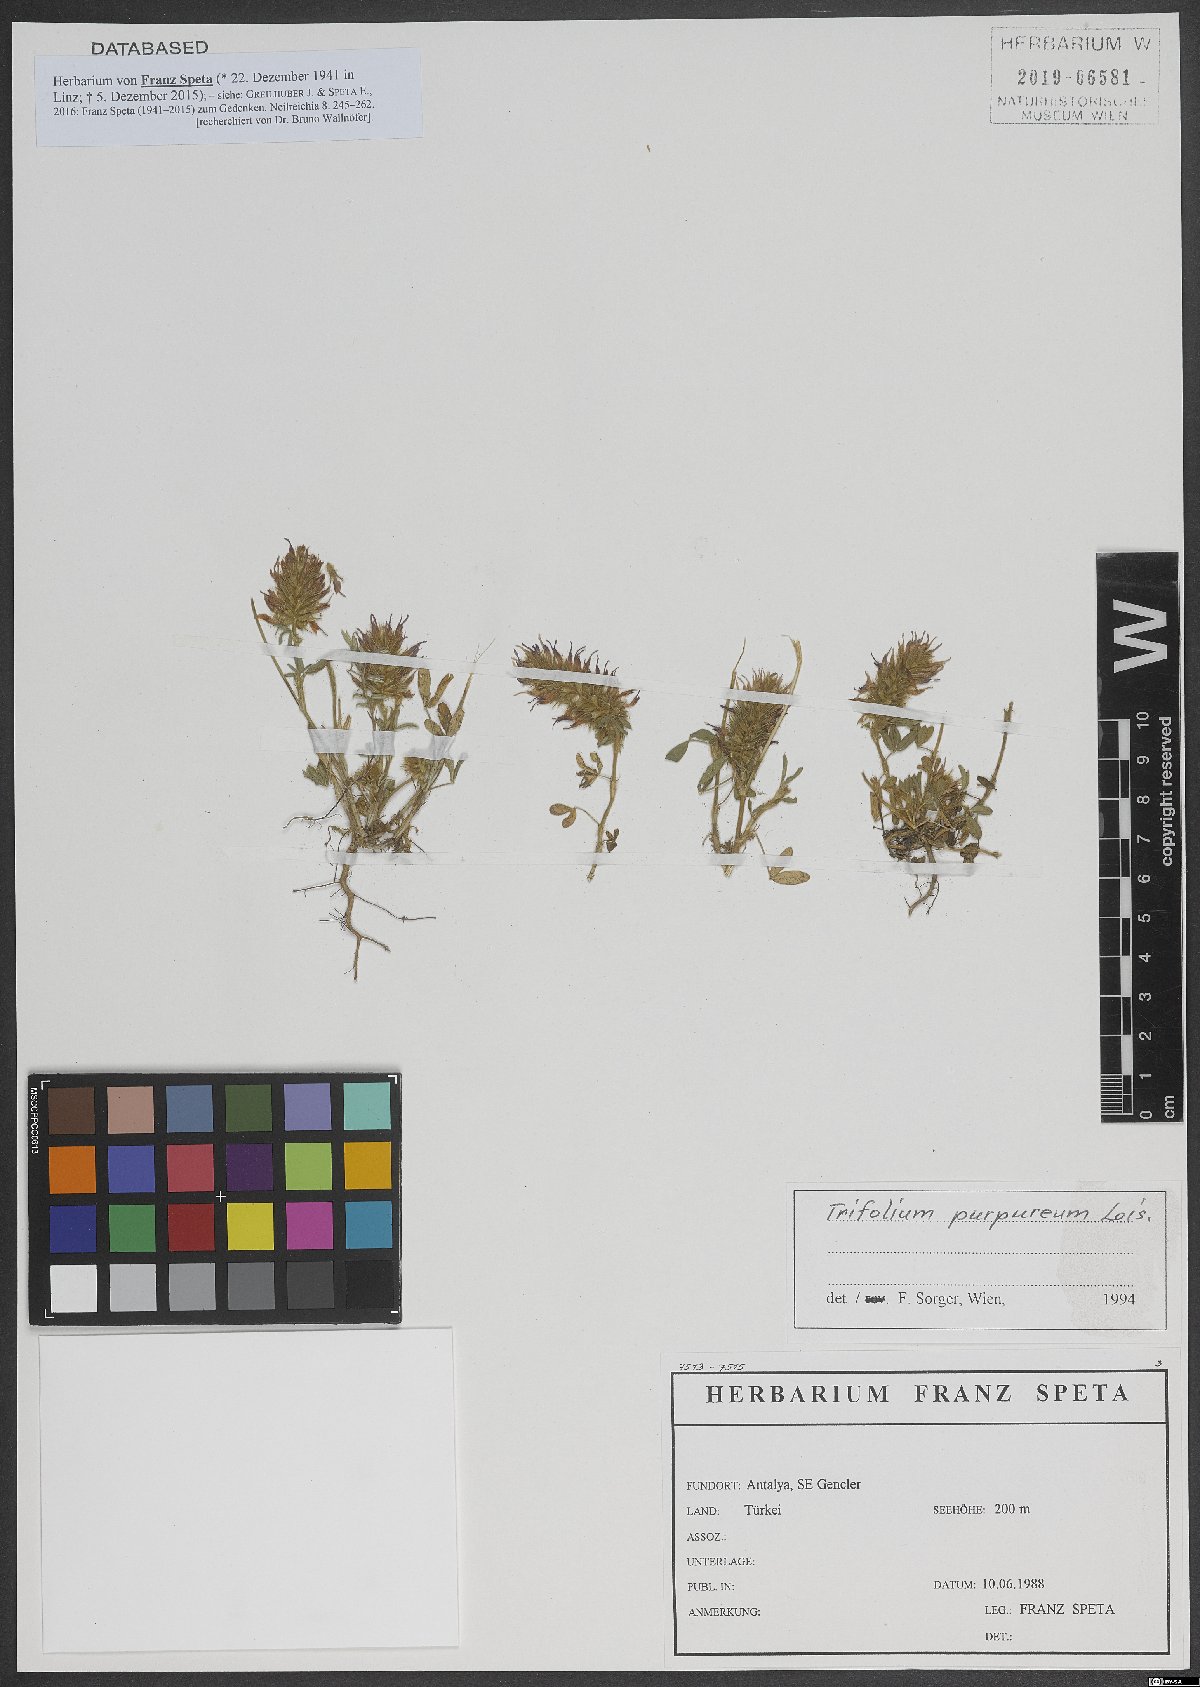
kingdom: Plantae
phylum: Tracheophyta
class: Magnoliopsida
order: Fabales
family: Fabaceae
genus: Trifolium
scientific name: Trifolium purpureum
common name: Purple clover
